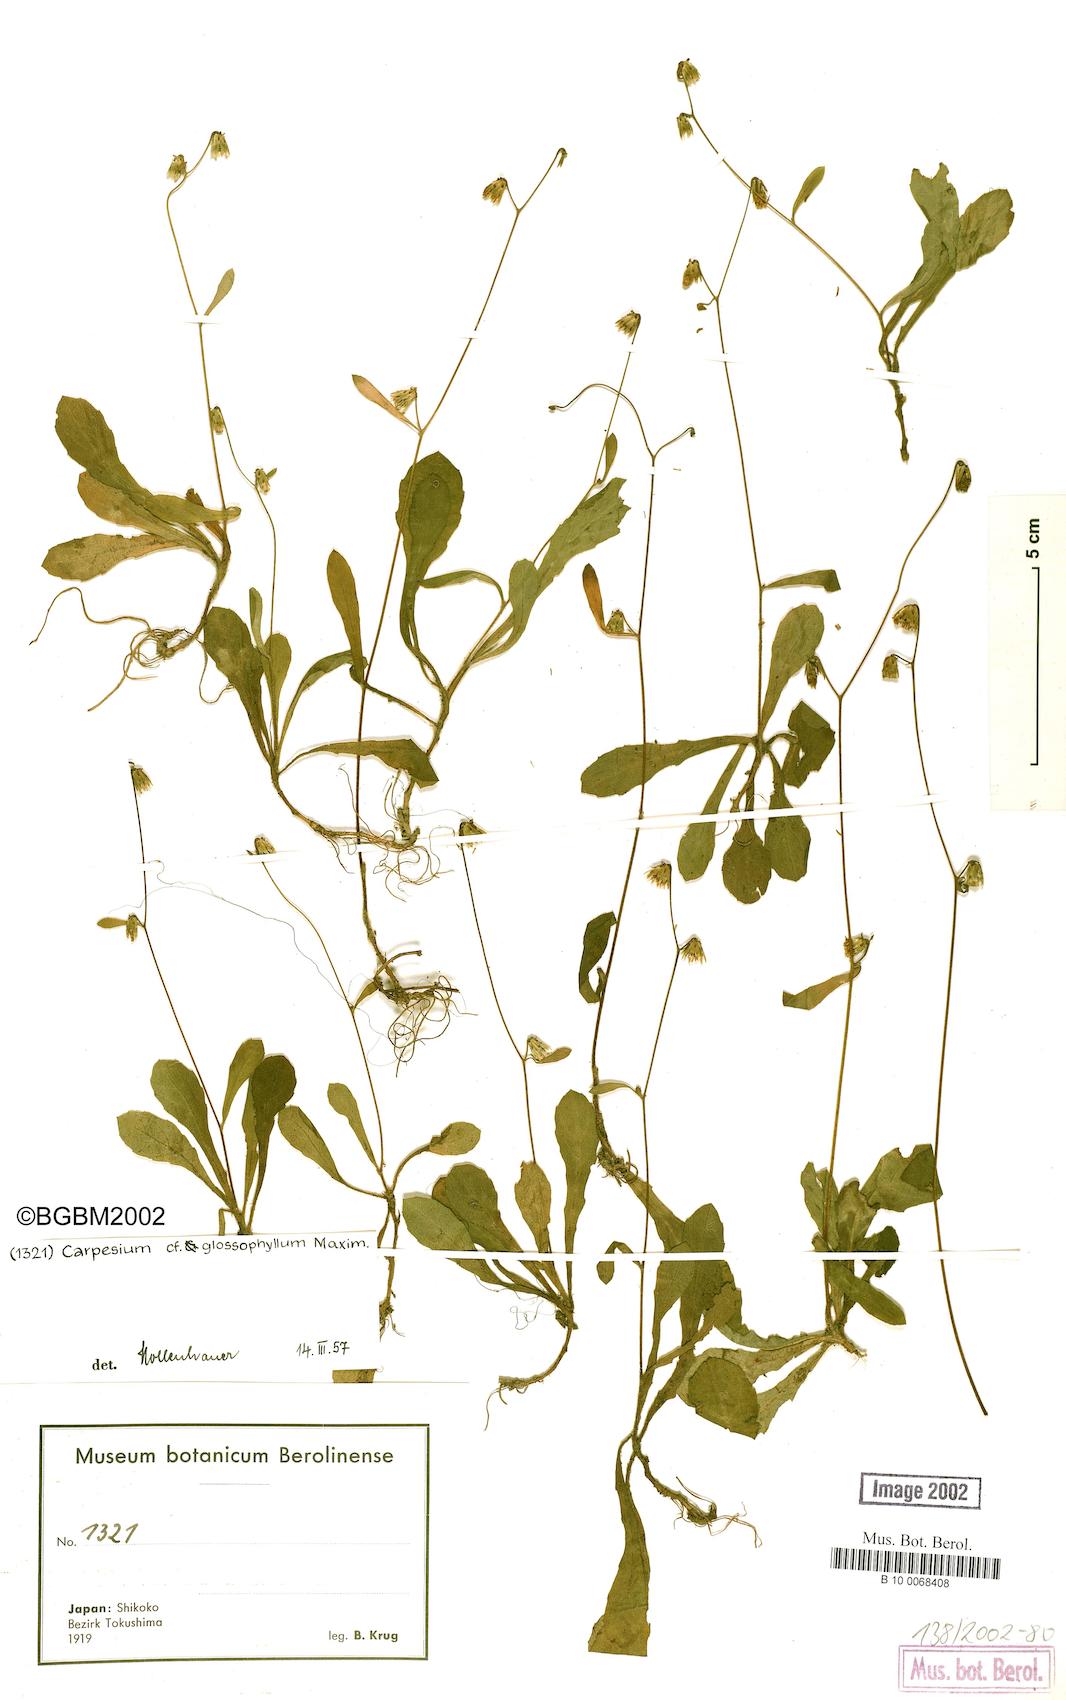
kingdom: Plantae
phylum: Tracheophyta
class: Magnoliopsida
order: Asterales
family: Asteraceae
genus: Carpesium
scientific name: Carpesium rosulatum
